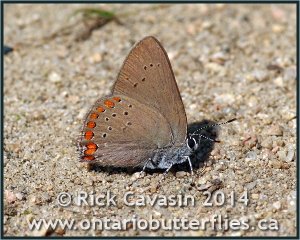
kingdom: Animalia
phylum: Arthropoda
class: Insecta
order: Lepidoptera
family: Lycaenidae
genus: Harkenclenus
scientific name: Harkenclenus titus
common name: Coral Hairstreak
